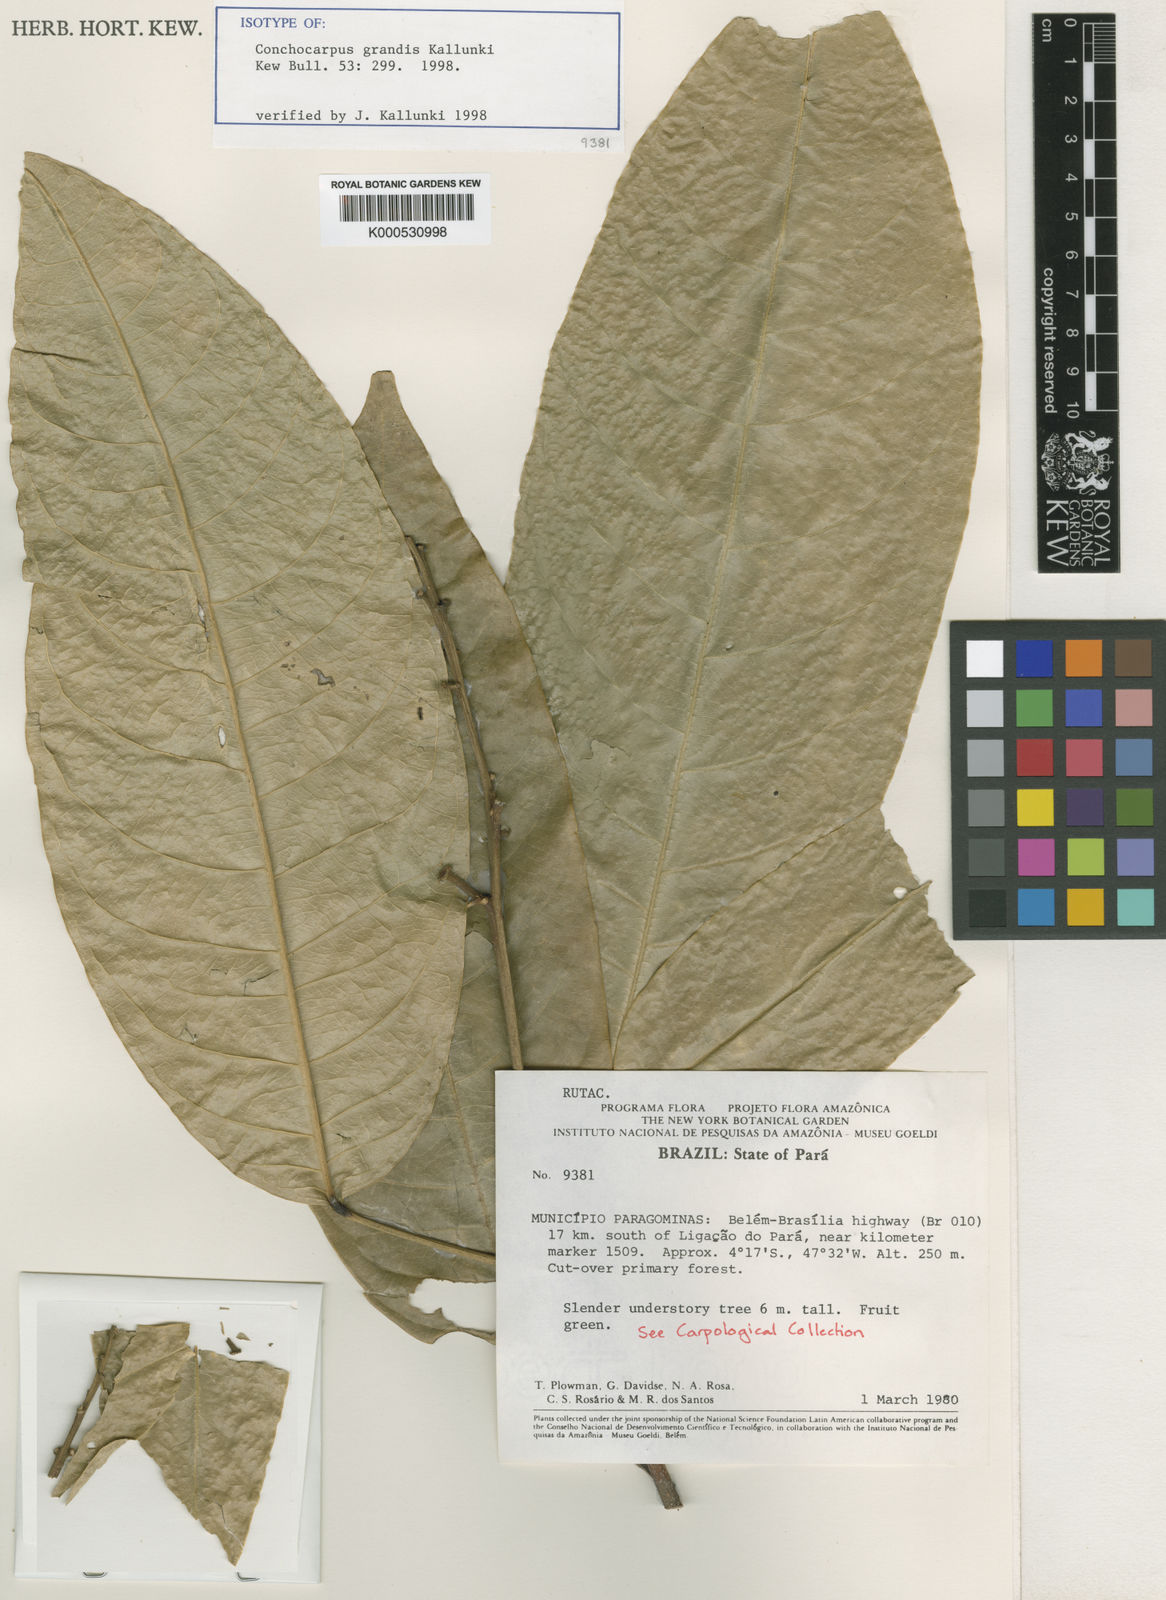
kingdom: Plantae
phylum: Tracheophyta
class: Magnoliopsida
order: Sapindales
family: Rutaceae
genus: Conchocarpus
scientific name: Conchocarpus grandis
